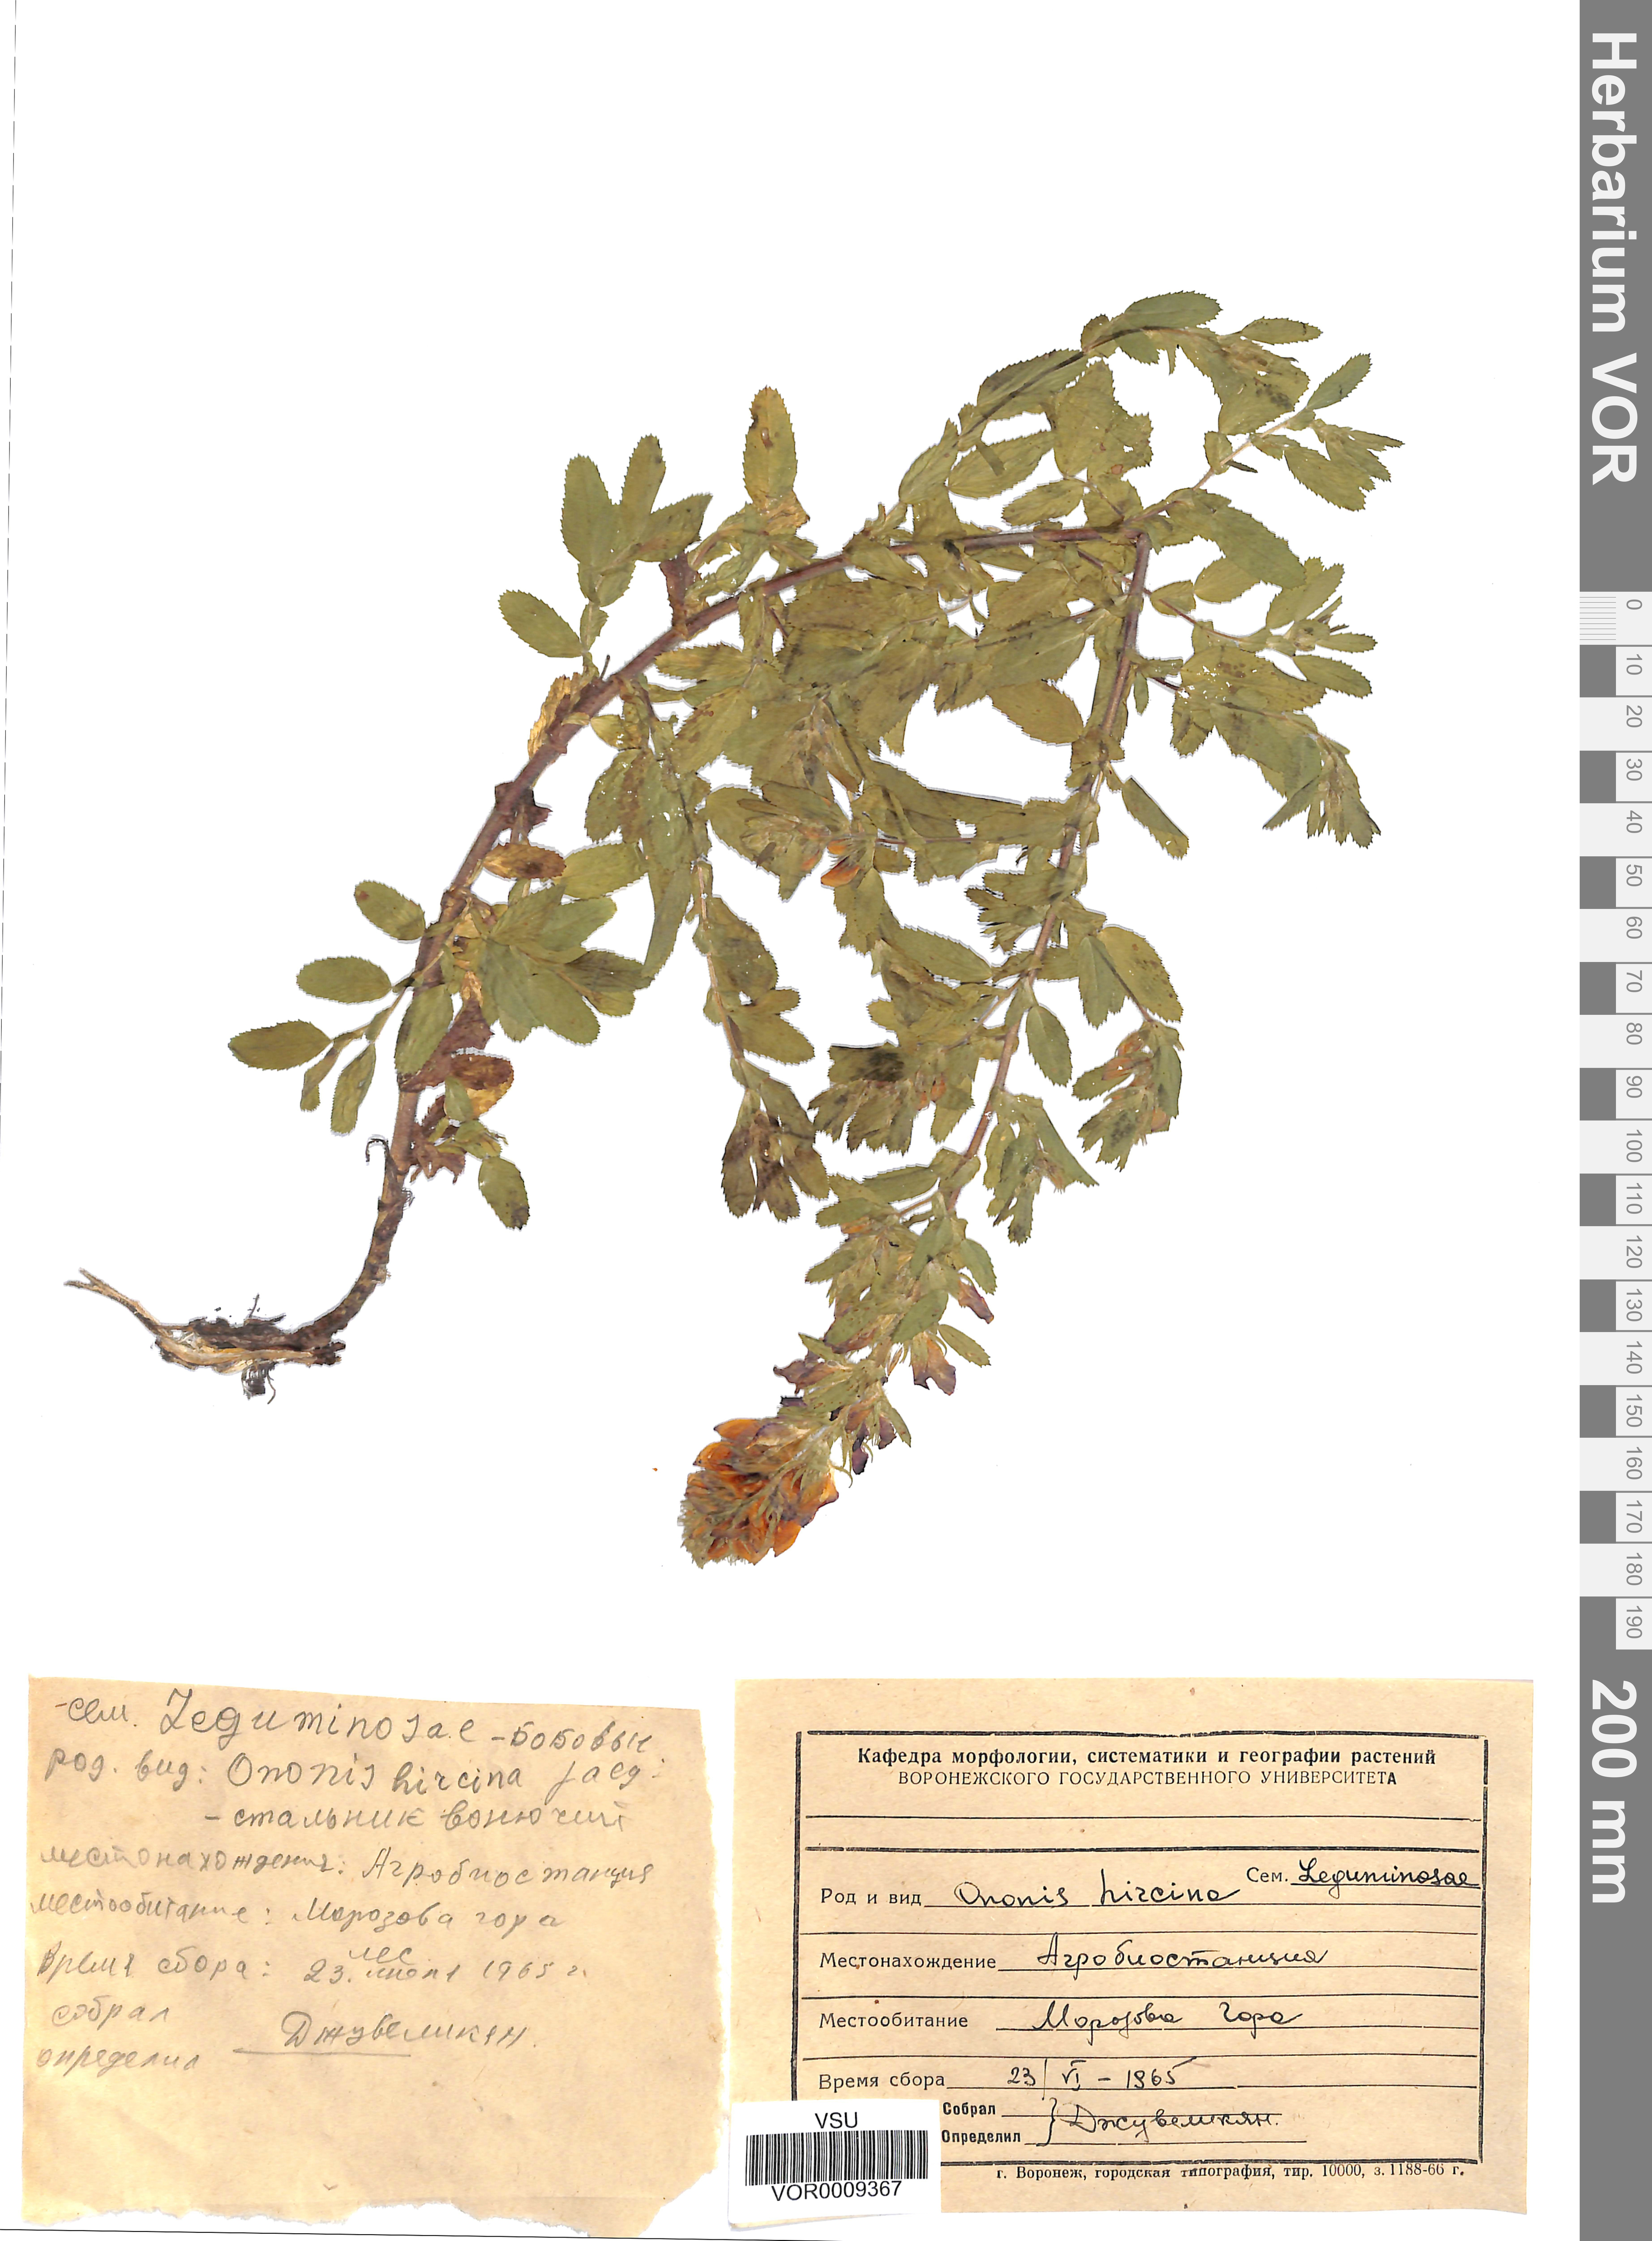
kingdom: Plantae
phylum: Tracheophyta
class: Magnoliopsida
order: Fabales
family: Fabaceae
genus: Ononis
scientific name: Ononis arvensis
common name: Field restharrow
